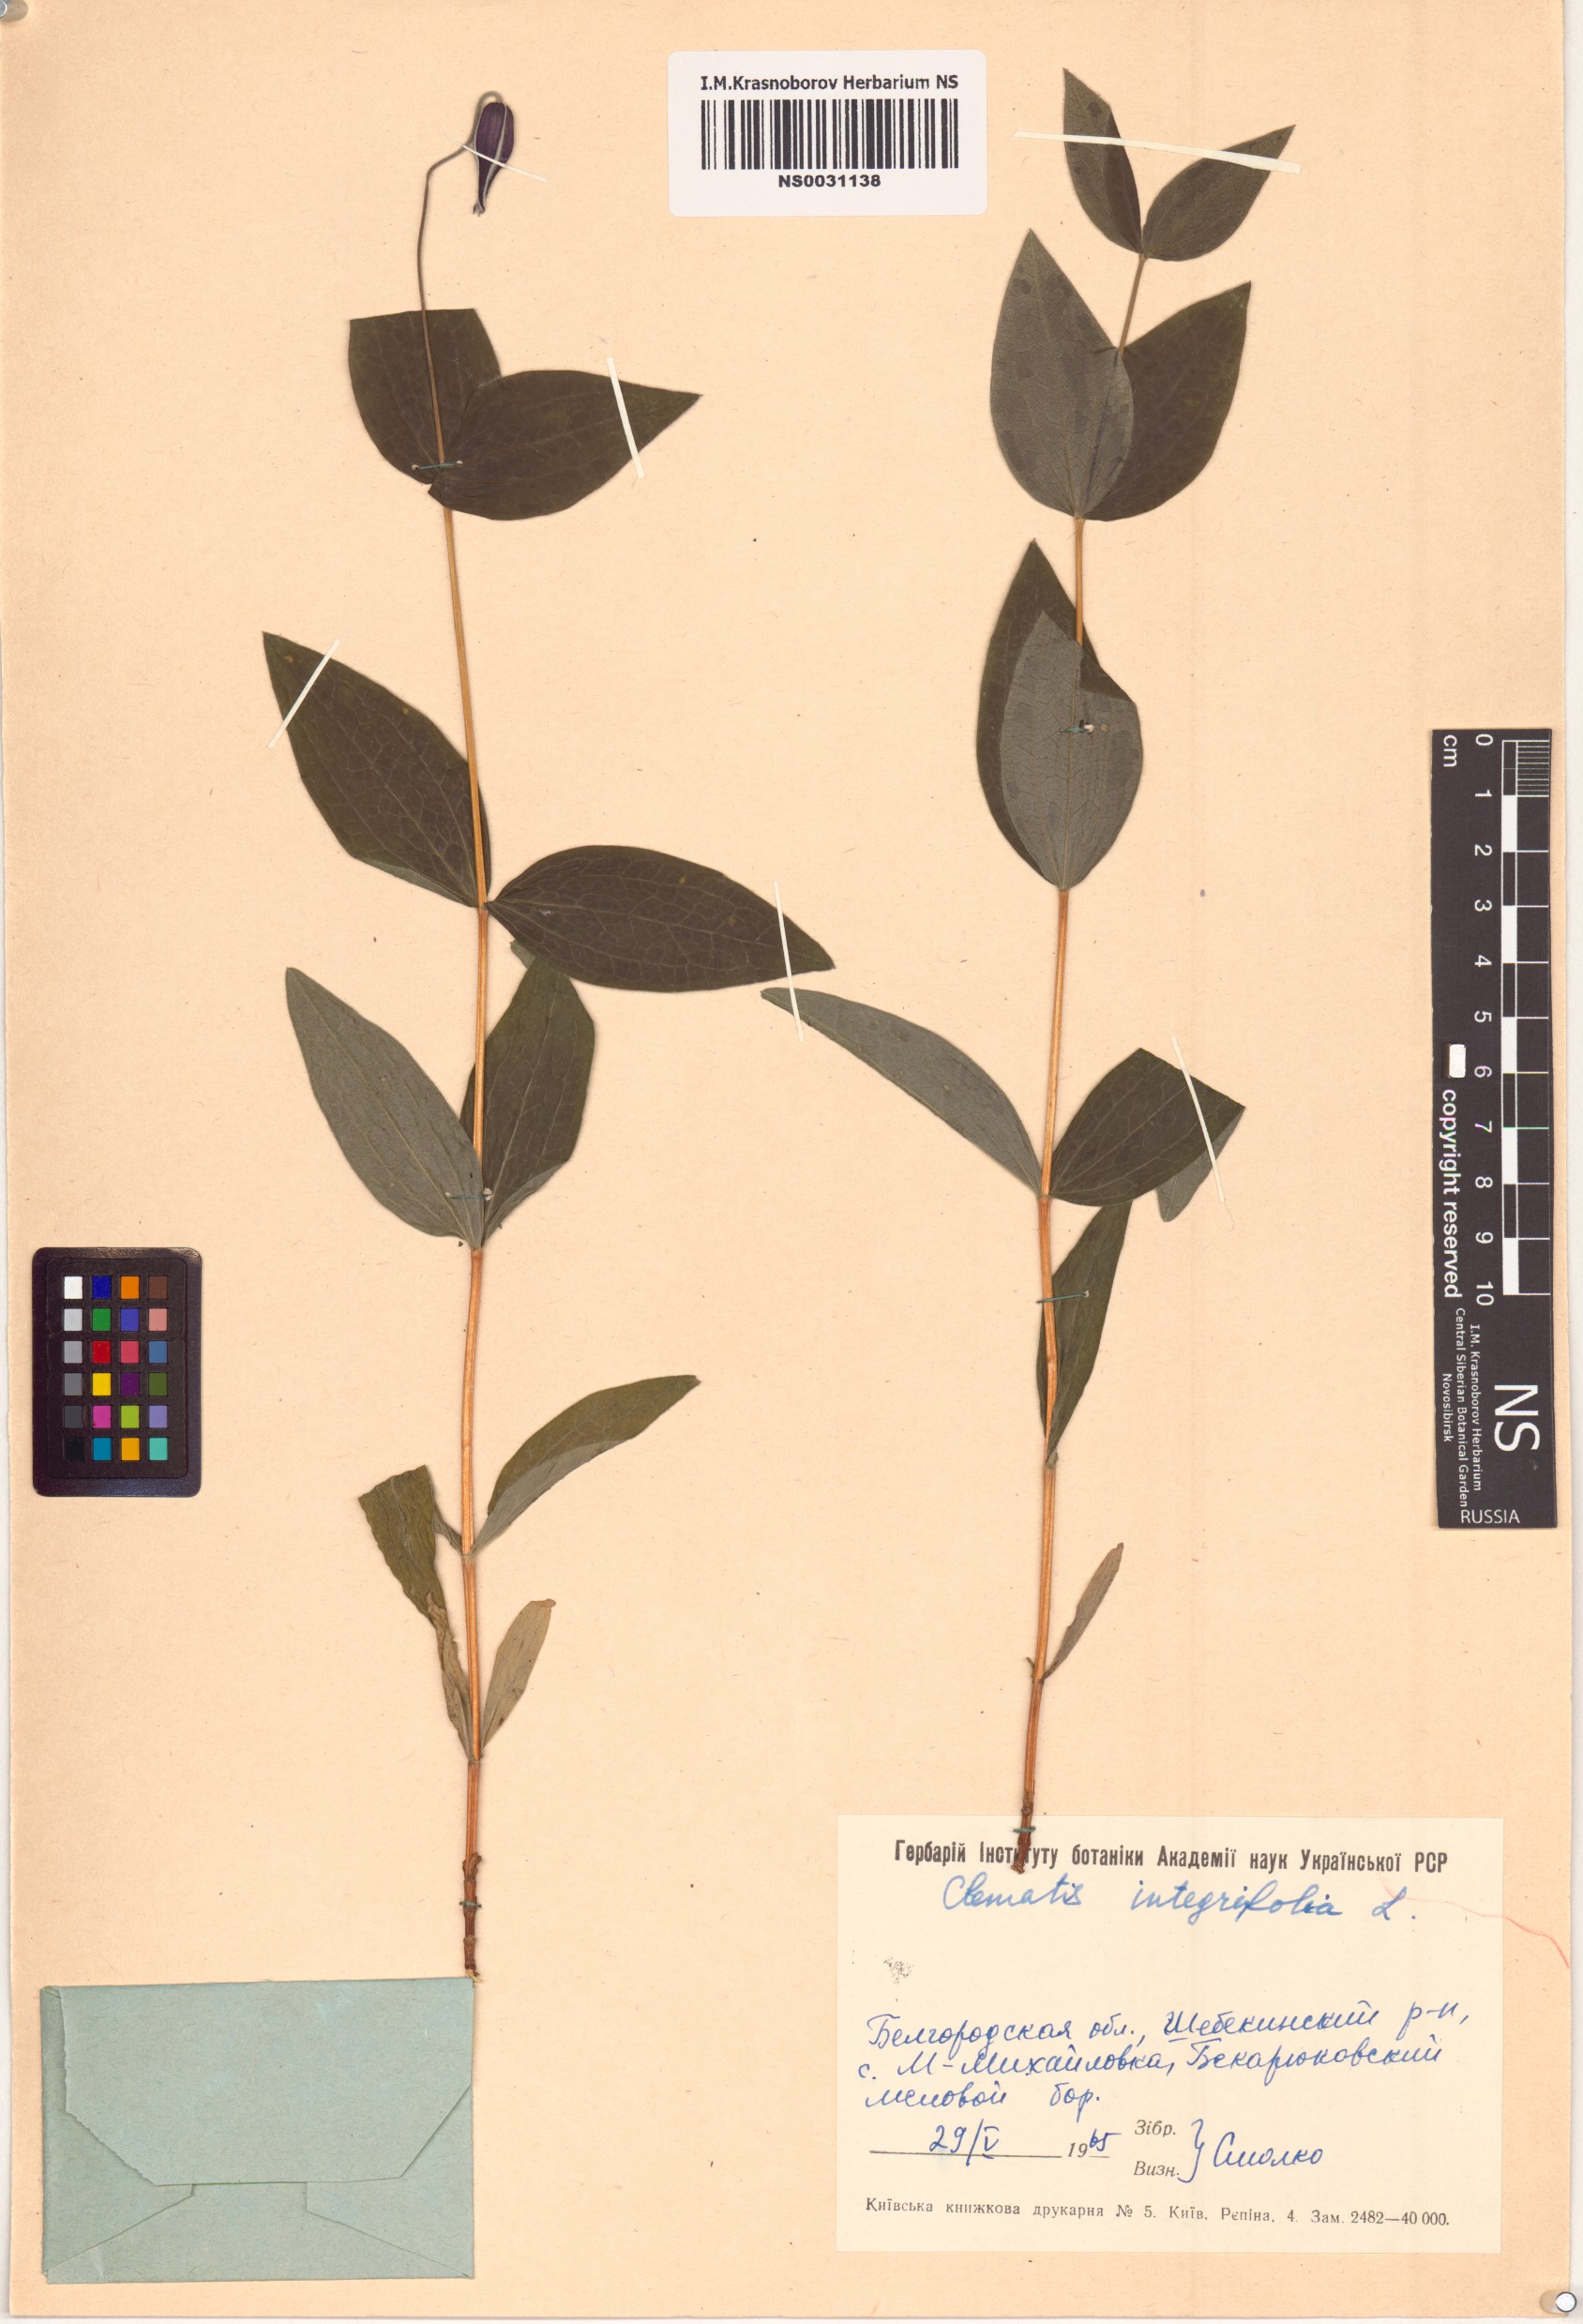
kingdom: Plantae
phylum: Tracheophyta
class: Magnoliopsida
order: Ranunculales
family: Ranunculaceae
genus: Clematis
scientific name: Clematis integrifolia
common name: Solitary clematis
